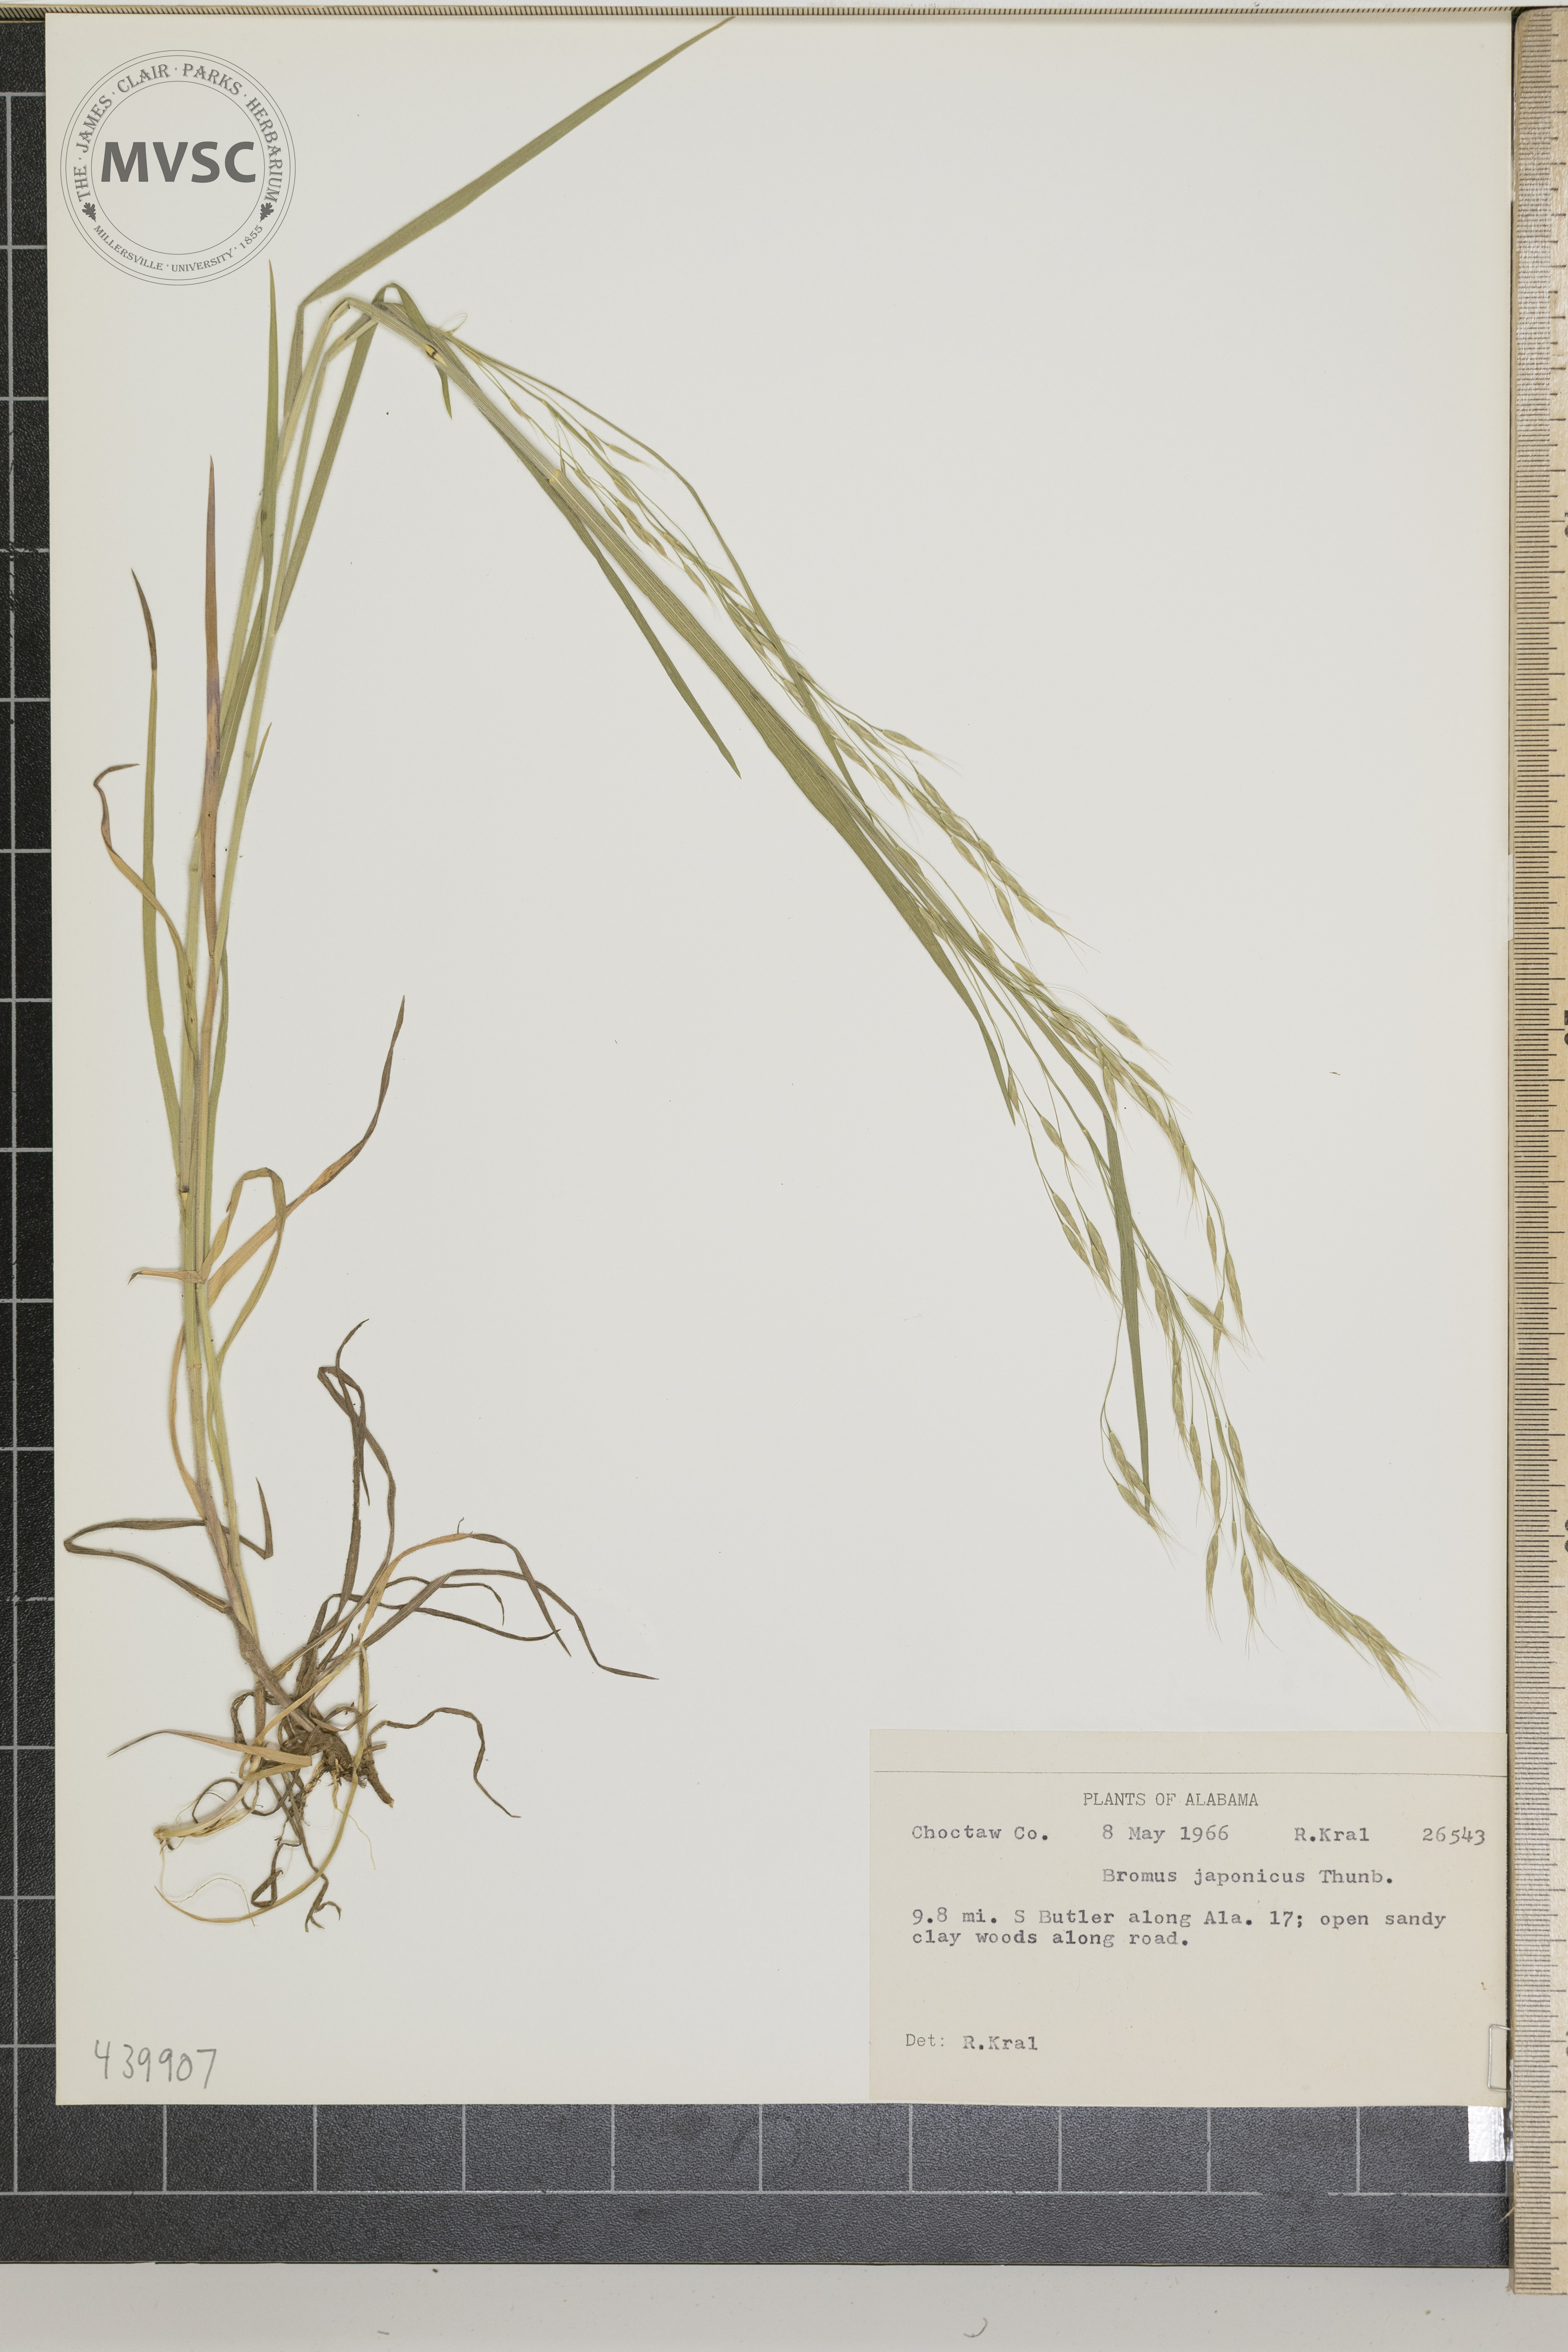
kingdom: Plantae
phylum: Tracheophyta
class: Liliopsida
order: Poales
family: Poaceae
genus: Bromus
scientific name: Bromus japonicus
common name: Japanese brome
